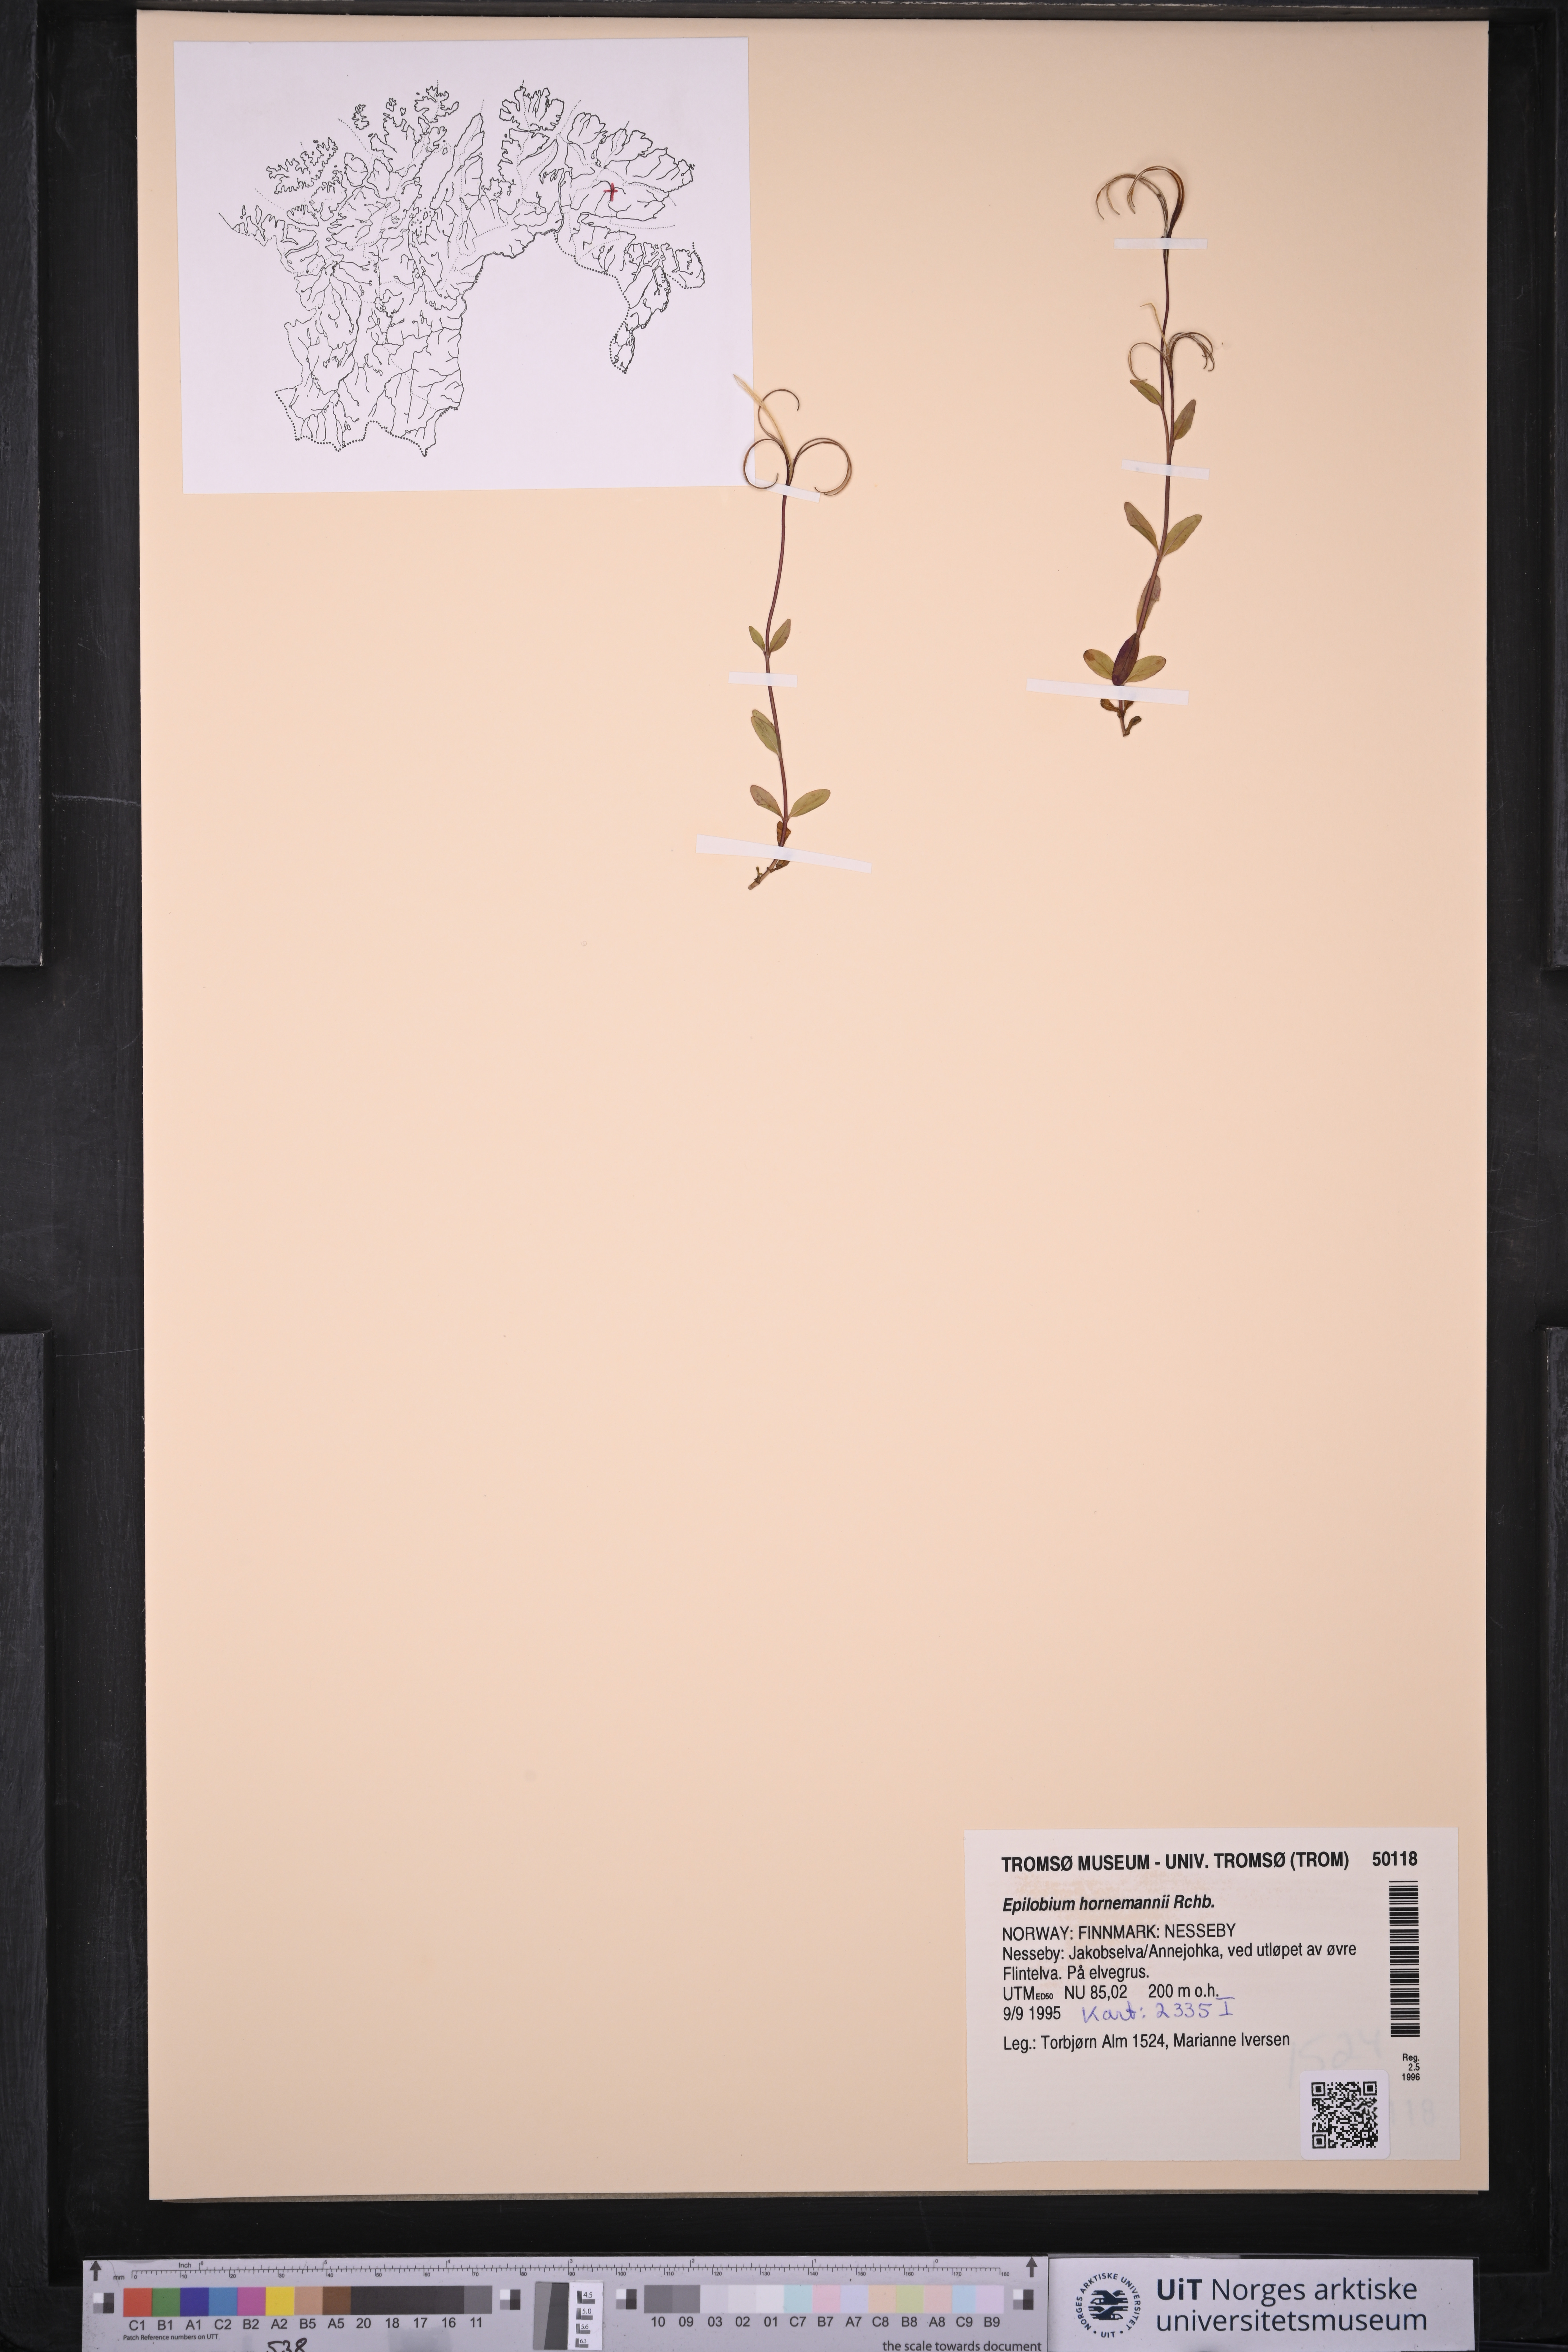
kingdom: Plantae
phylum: Tracheophyta
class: Magnoliopsida
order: Myrtales
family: Onagraceae
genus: Epilobium
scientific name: Epilobium hornemannii
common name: Hornemann's willowherb
